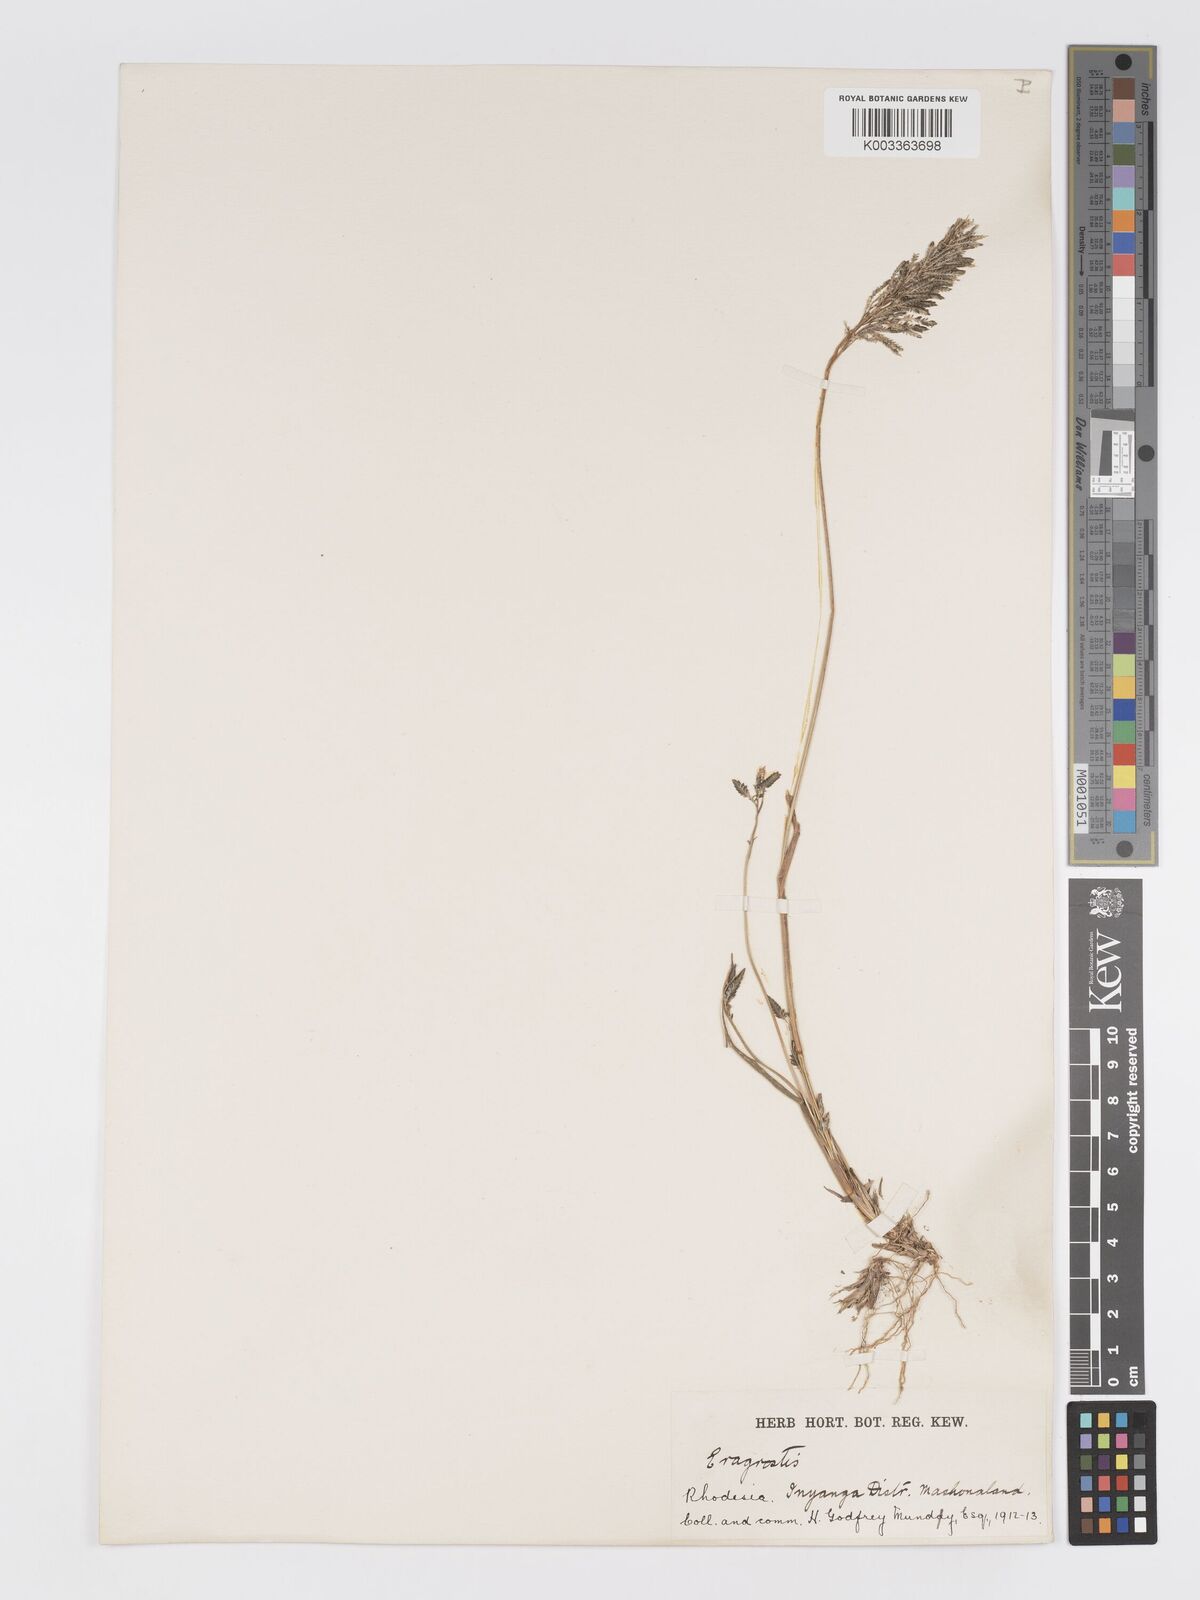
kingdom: Plantae
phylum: Tracheophyta
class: Liliopsida
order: Poales
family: Poaceae
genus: Eragrostis
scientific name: Eragrostis cilianensis
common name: Stinkgrass
